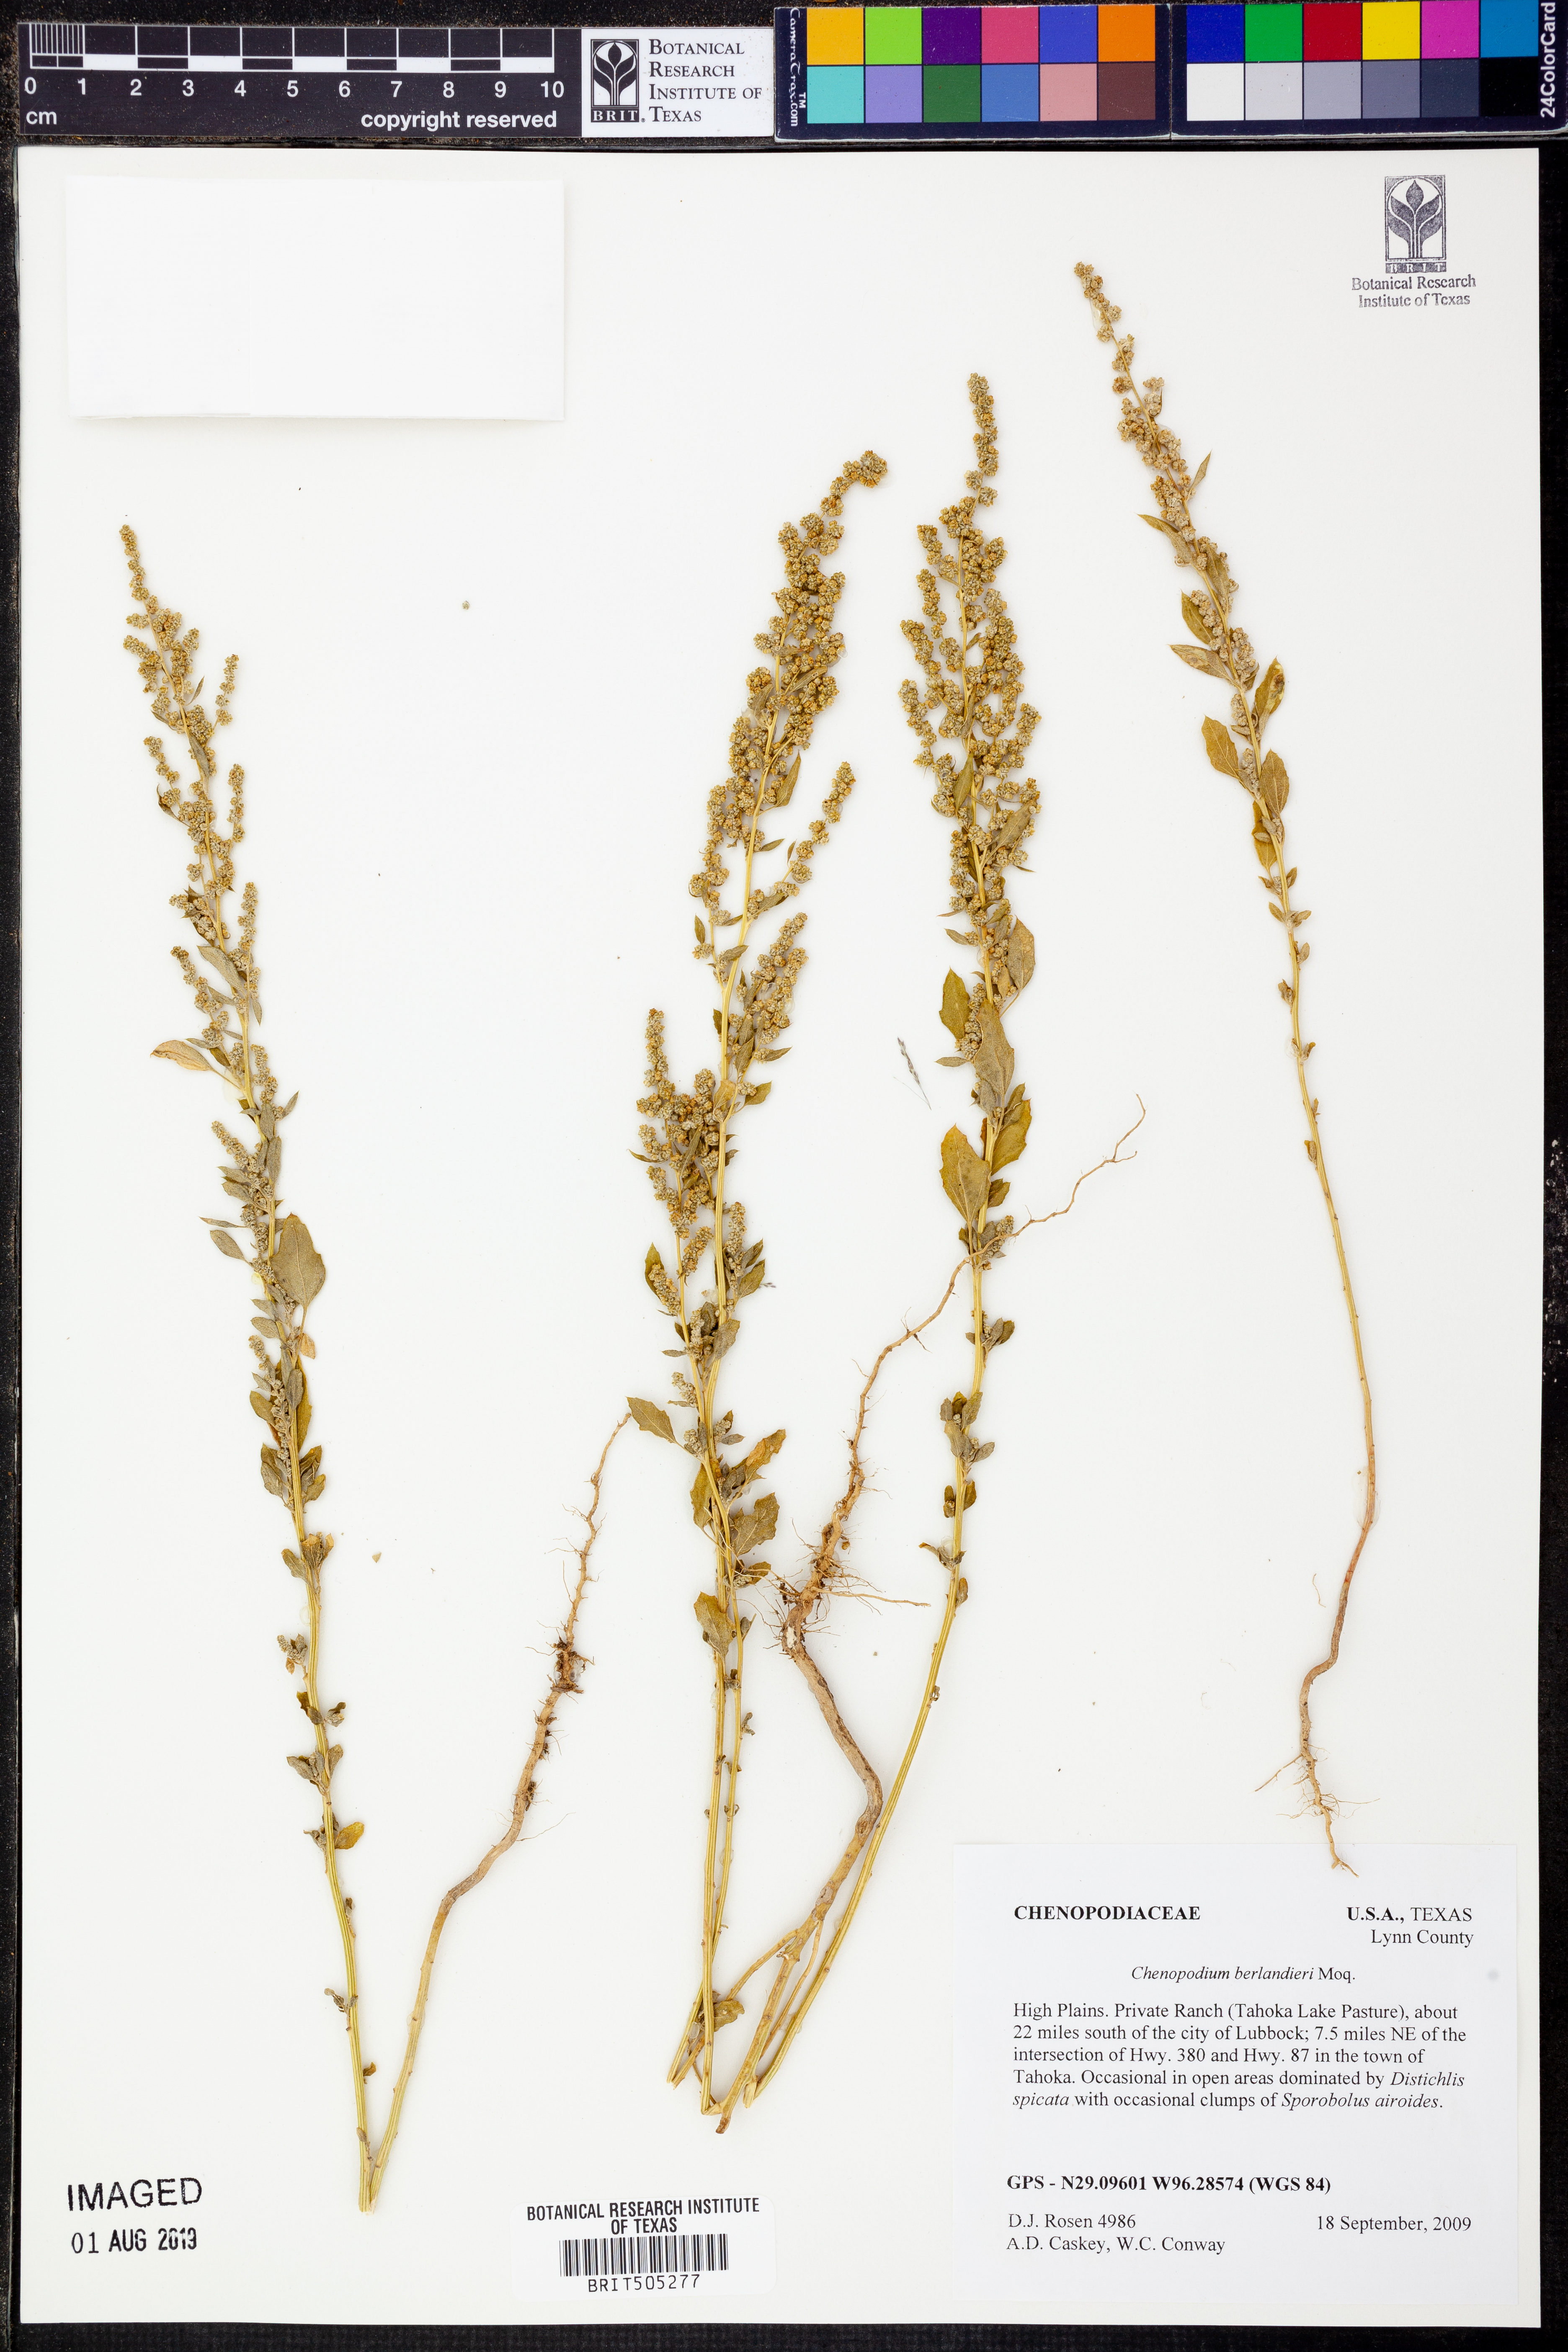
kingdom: Plantae
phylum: Tracheophyta
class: Magnoliopsida
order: Caryophyllales
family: Amaranthaceae
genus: Chenopodium
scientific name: Chenopodium berlandieri
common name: Pit-seed goosefoot
